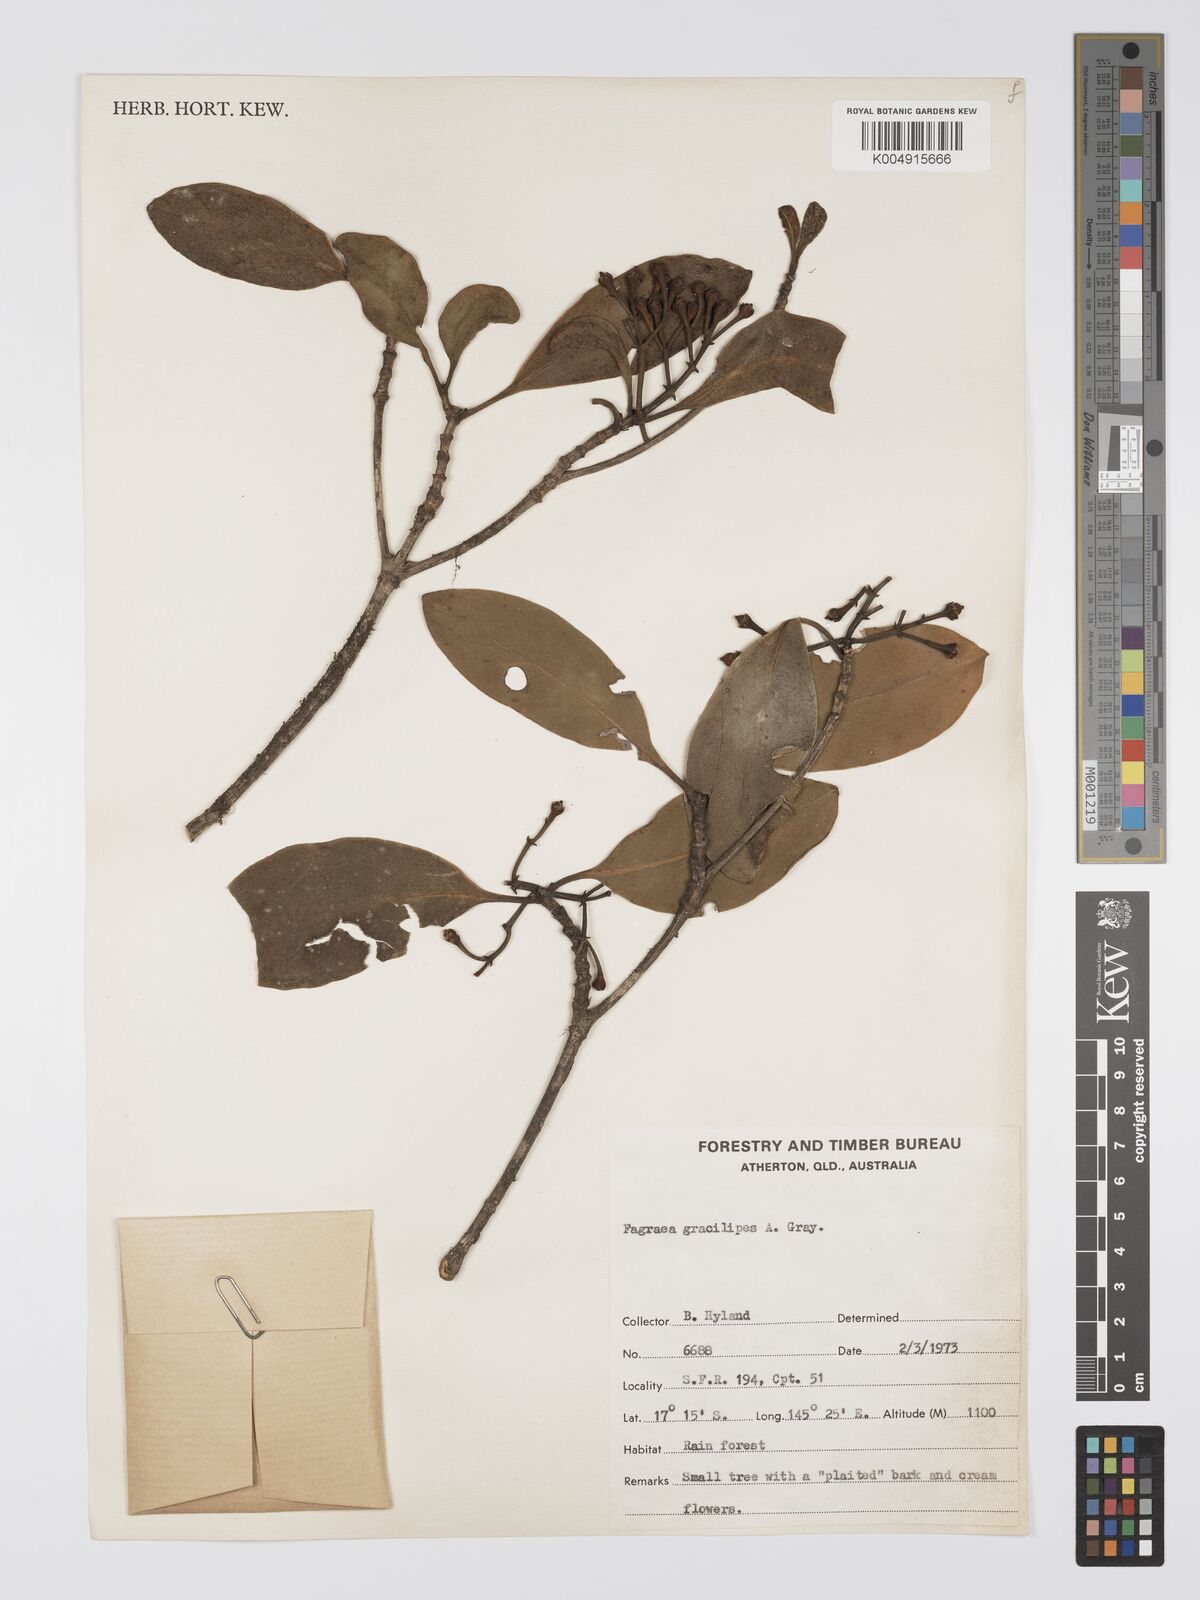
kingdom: Plantae
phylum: Tracheophyta
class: Magnoliopsida
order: Gentianales
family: Gentianaceae
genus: Fagraea
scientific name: Fagraea gracilipes
